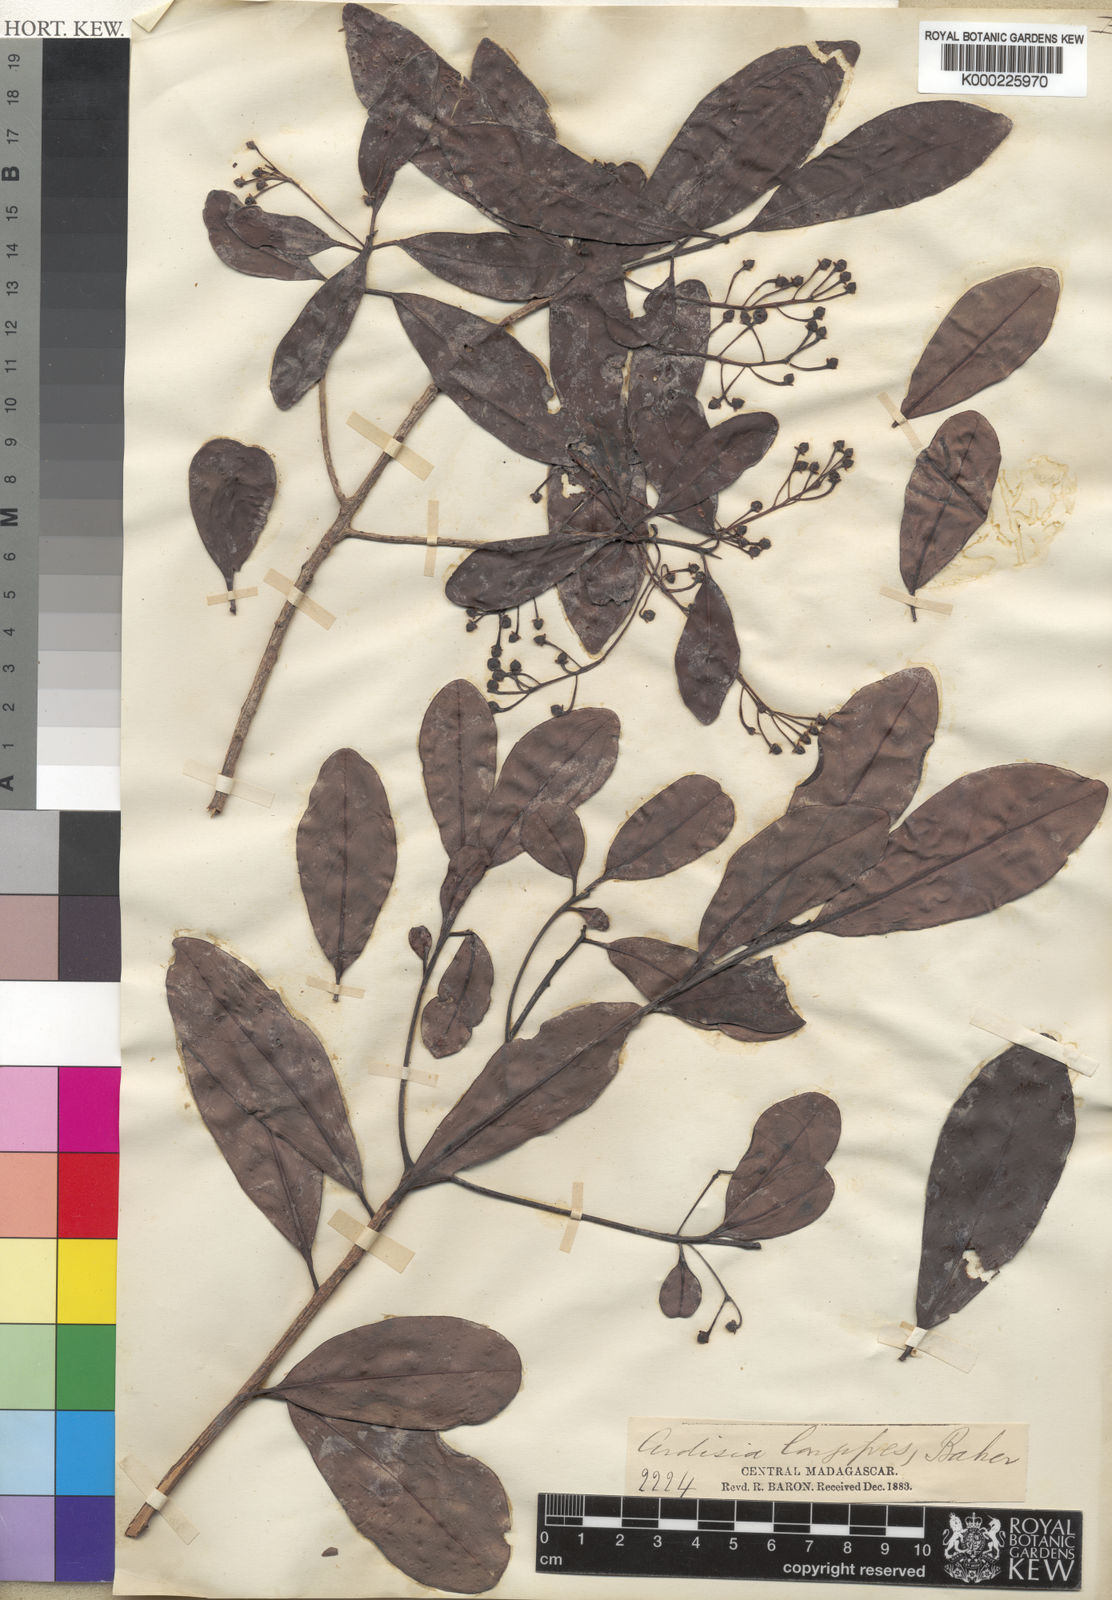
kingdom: Plantae
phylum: Tracheophyta
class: Magnoliopsida
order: Ericales
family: Primulaceae
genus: Oncostemum
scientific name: Oncostemum longipes
